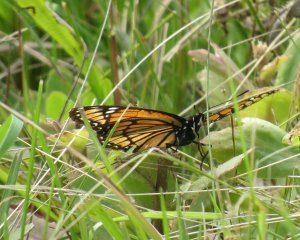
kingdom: Animalia
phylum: Arthropoda
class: Insecta
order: Lepidoptera
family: Nymphalidae
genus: Limenitis
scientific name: Limenitis archippus
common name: Viceroy
